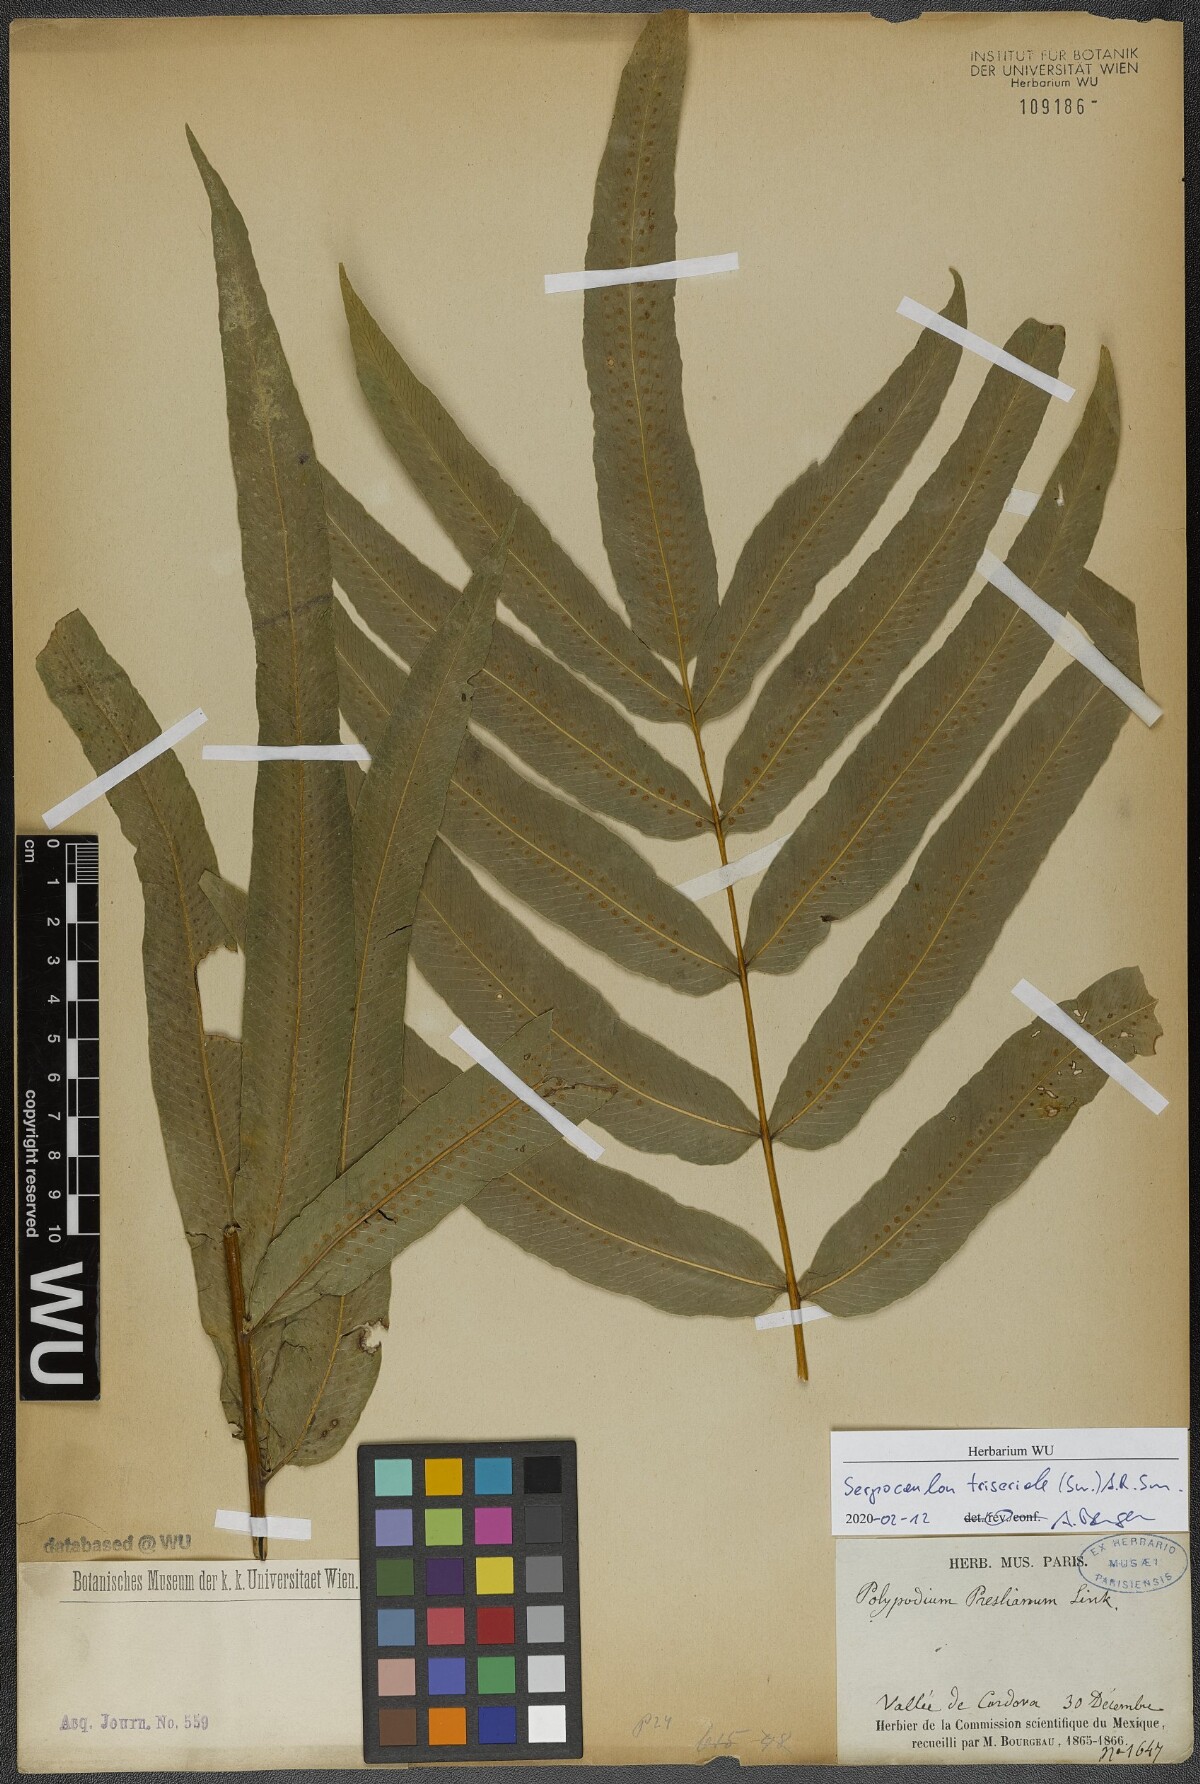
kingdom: Plantae
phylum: Tracheophyta
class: Polypodiopsida
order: Polypodiales
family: Polypodiaceae
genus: Serpocaulon
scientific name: Serpocaulon triseriale
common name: Angle-vein fern
